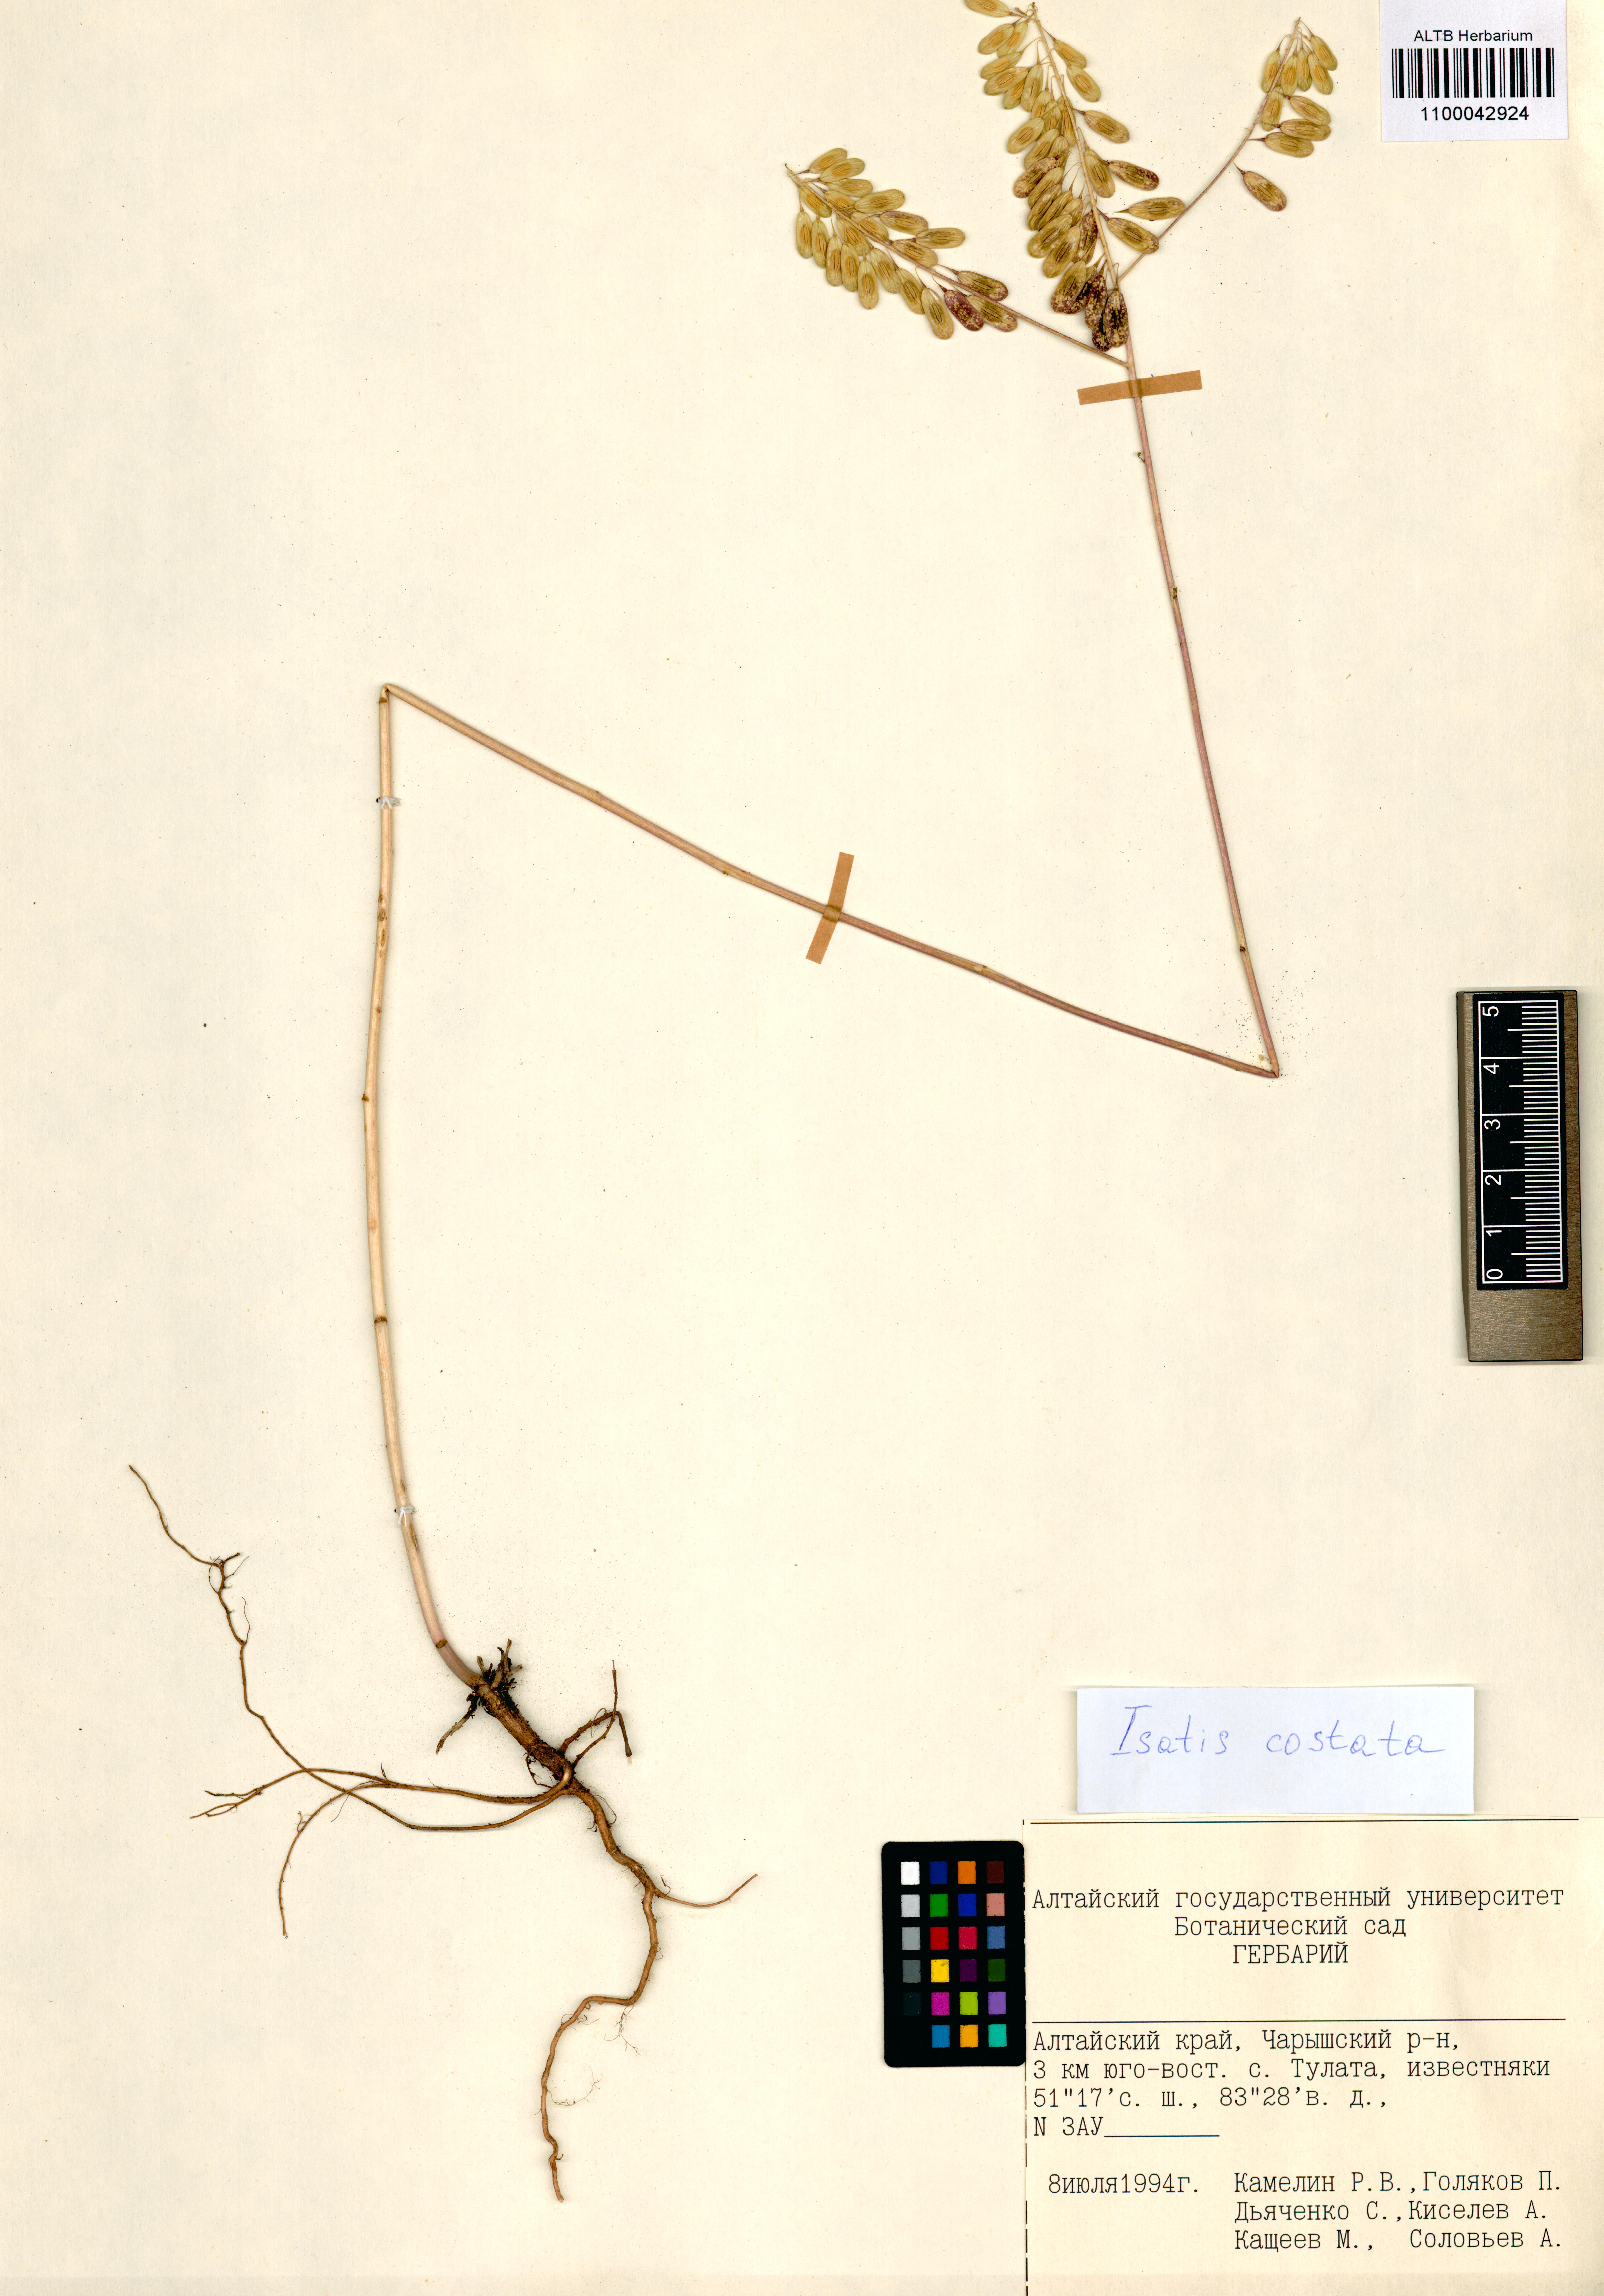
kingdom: Plantae
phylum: Tracheophyta
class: Magnoliopsida
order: Brassicales
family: Brassicaceae
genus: Isatis
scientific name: Isatis costata
